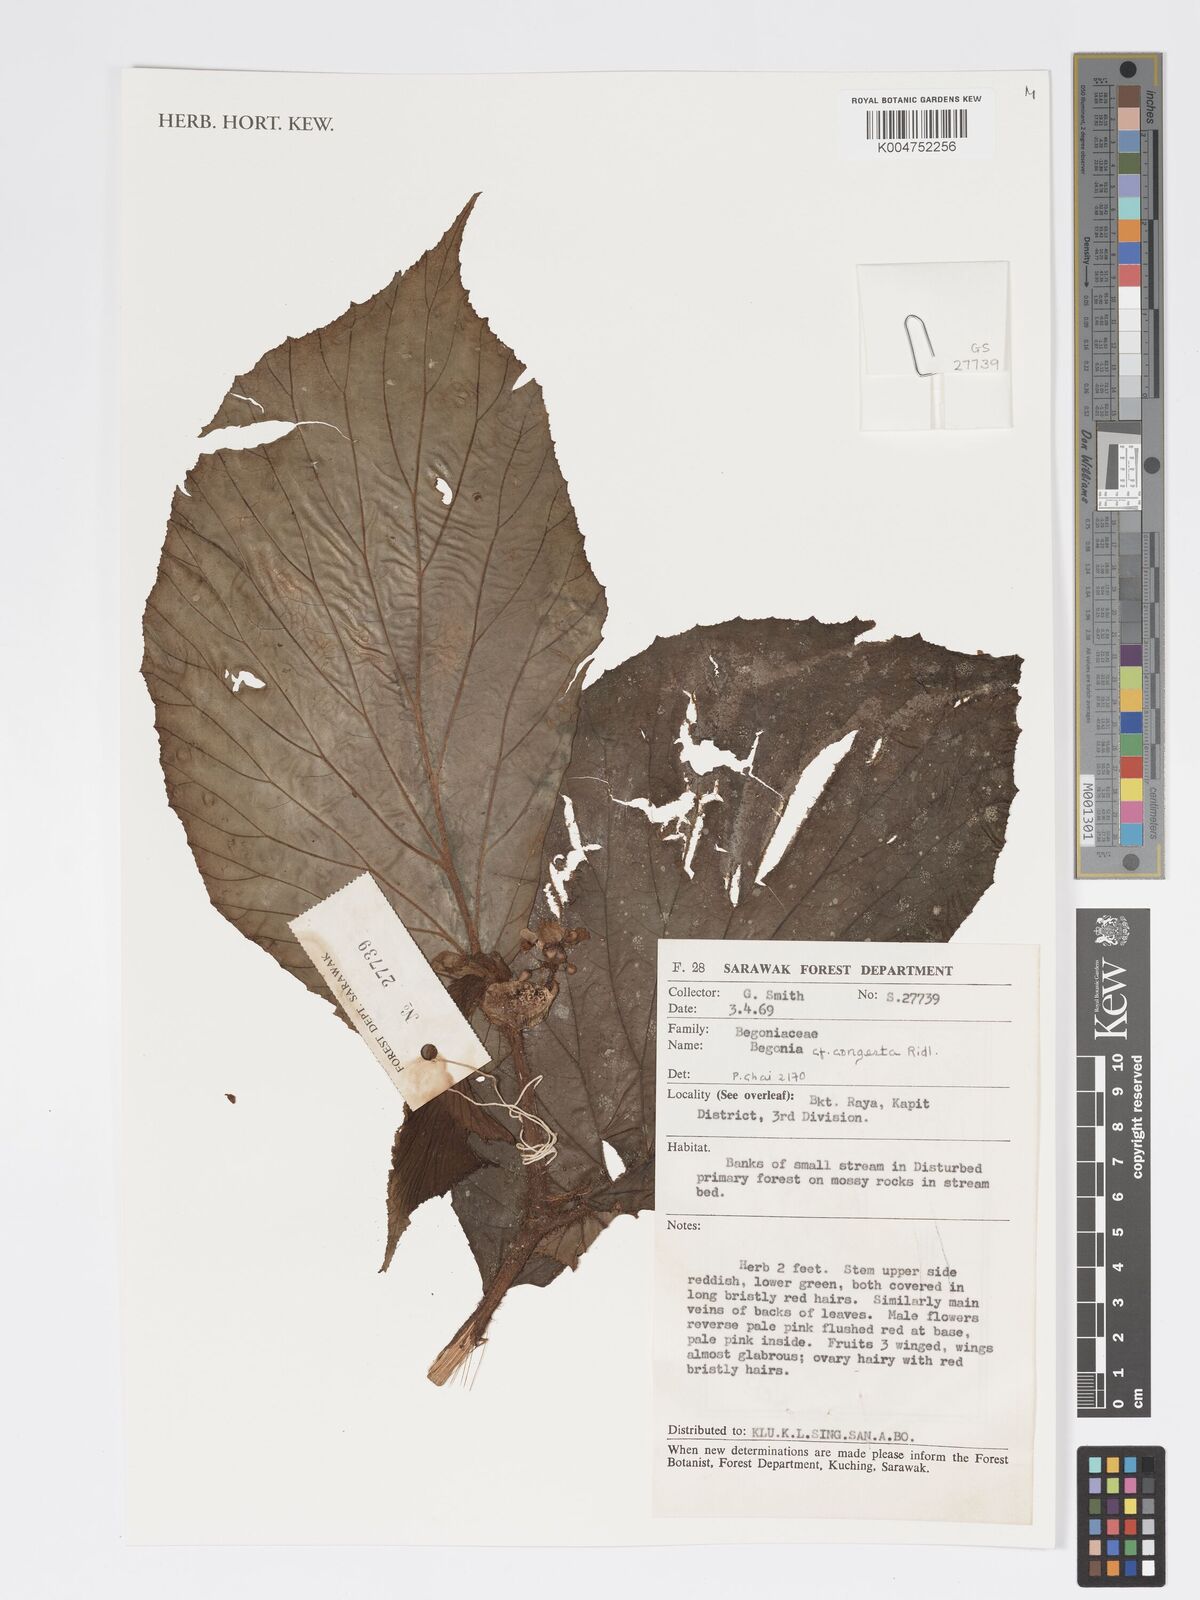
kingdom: Plantae
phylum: Tracheophyta
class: Magnoliopsida
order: Cucurbitales
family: Begoniaceae
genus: Begonia
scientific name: Begonia congesta
